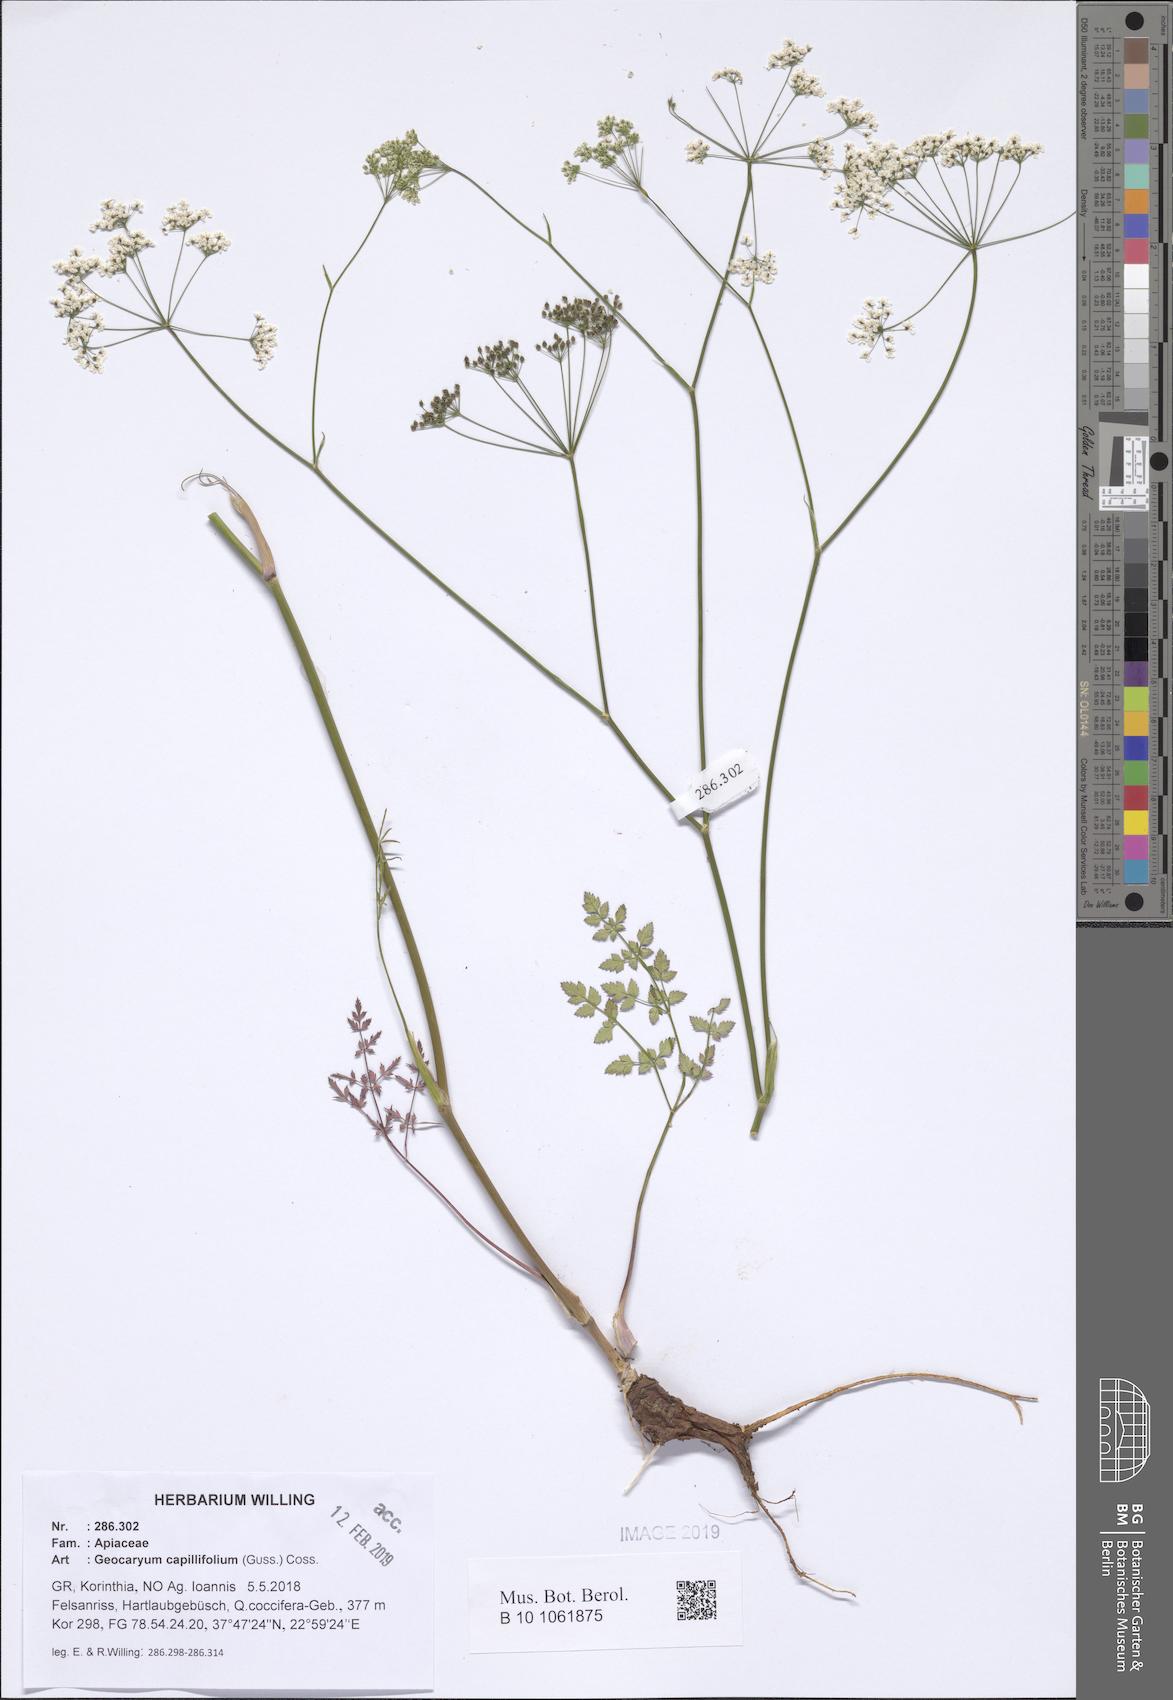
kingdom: Plantae
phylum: Tracheophyta
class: Magnoliopsida
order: Apiales
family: Apiaceae
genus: Geocaryum
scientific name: Geocaryum capillifolium
